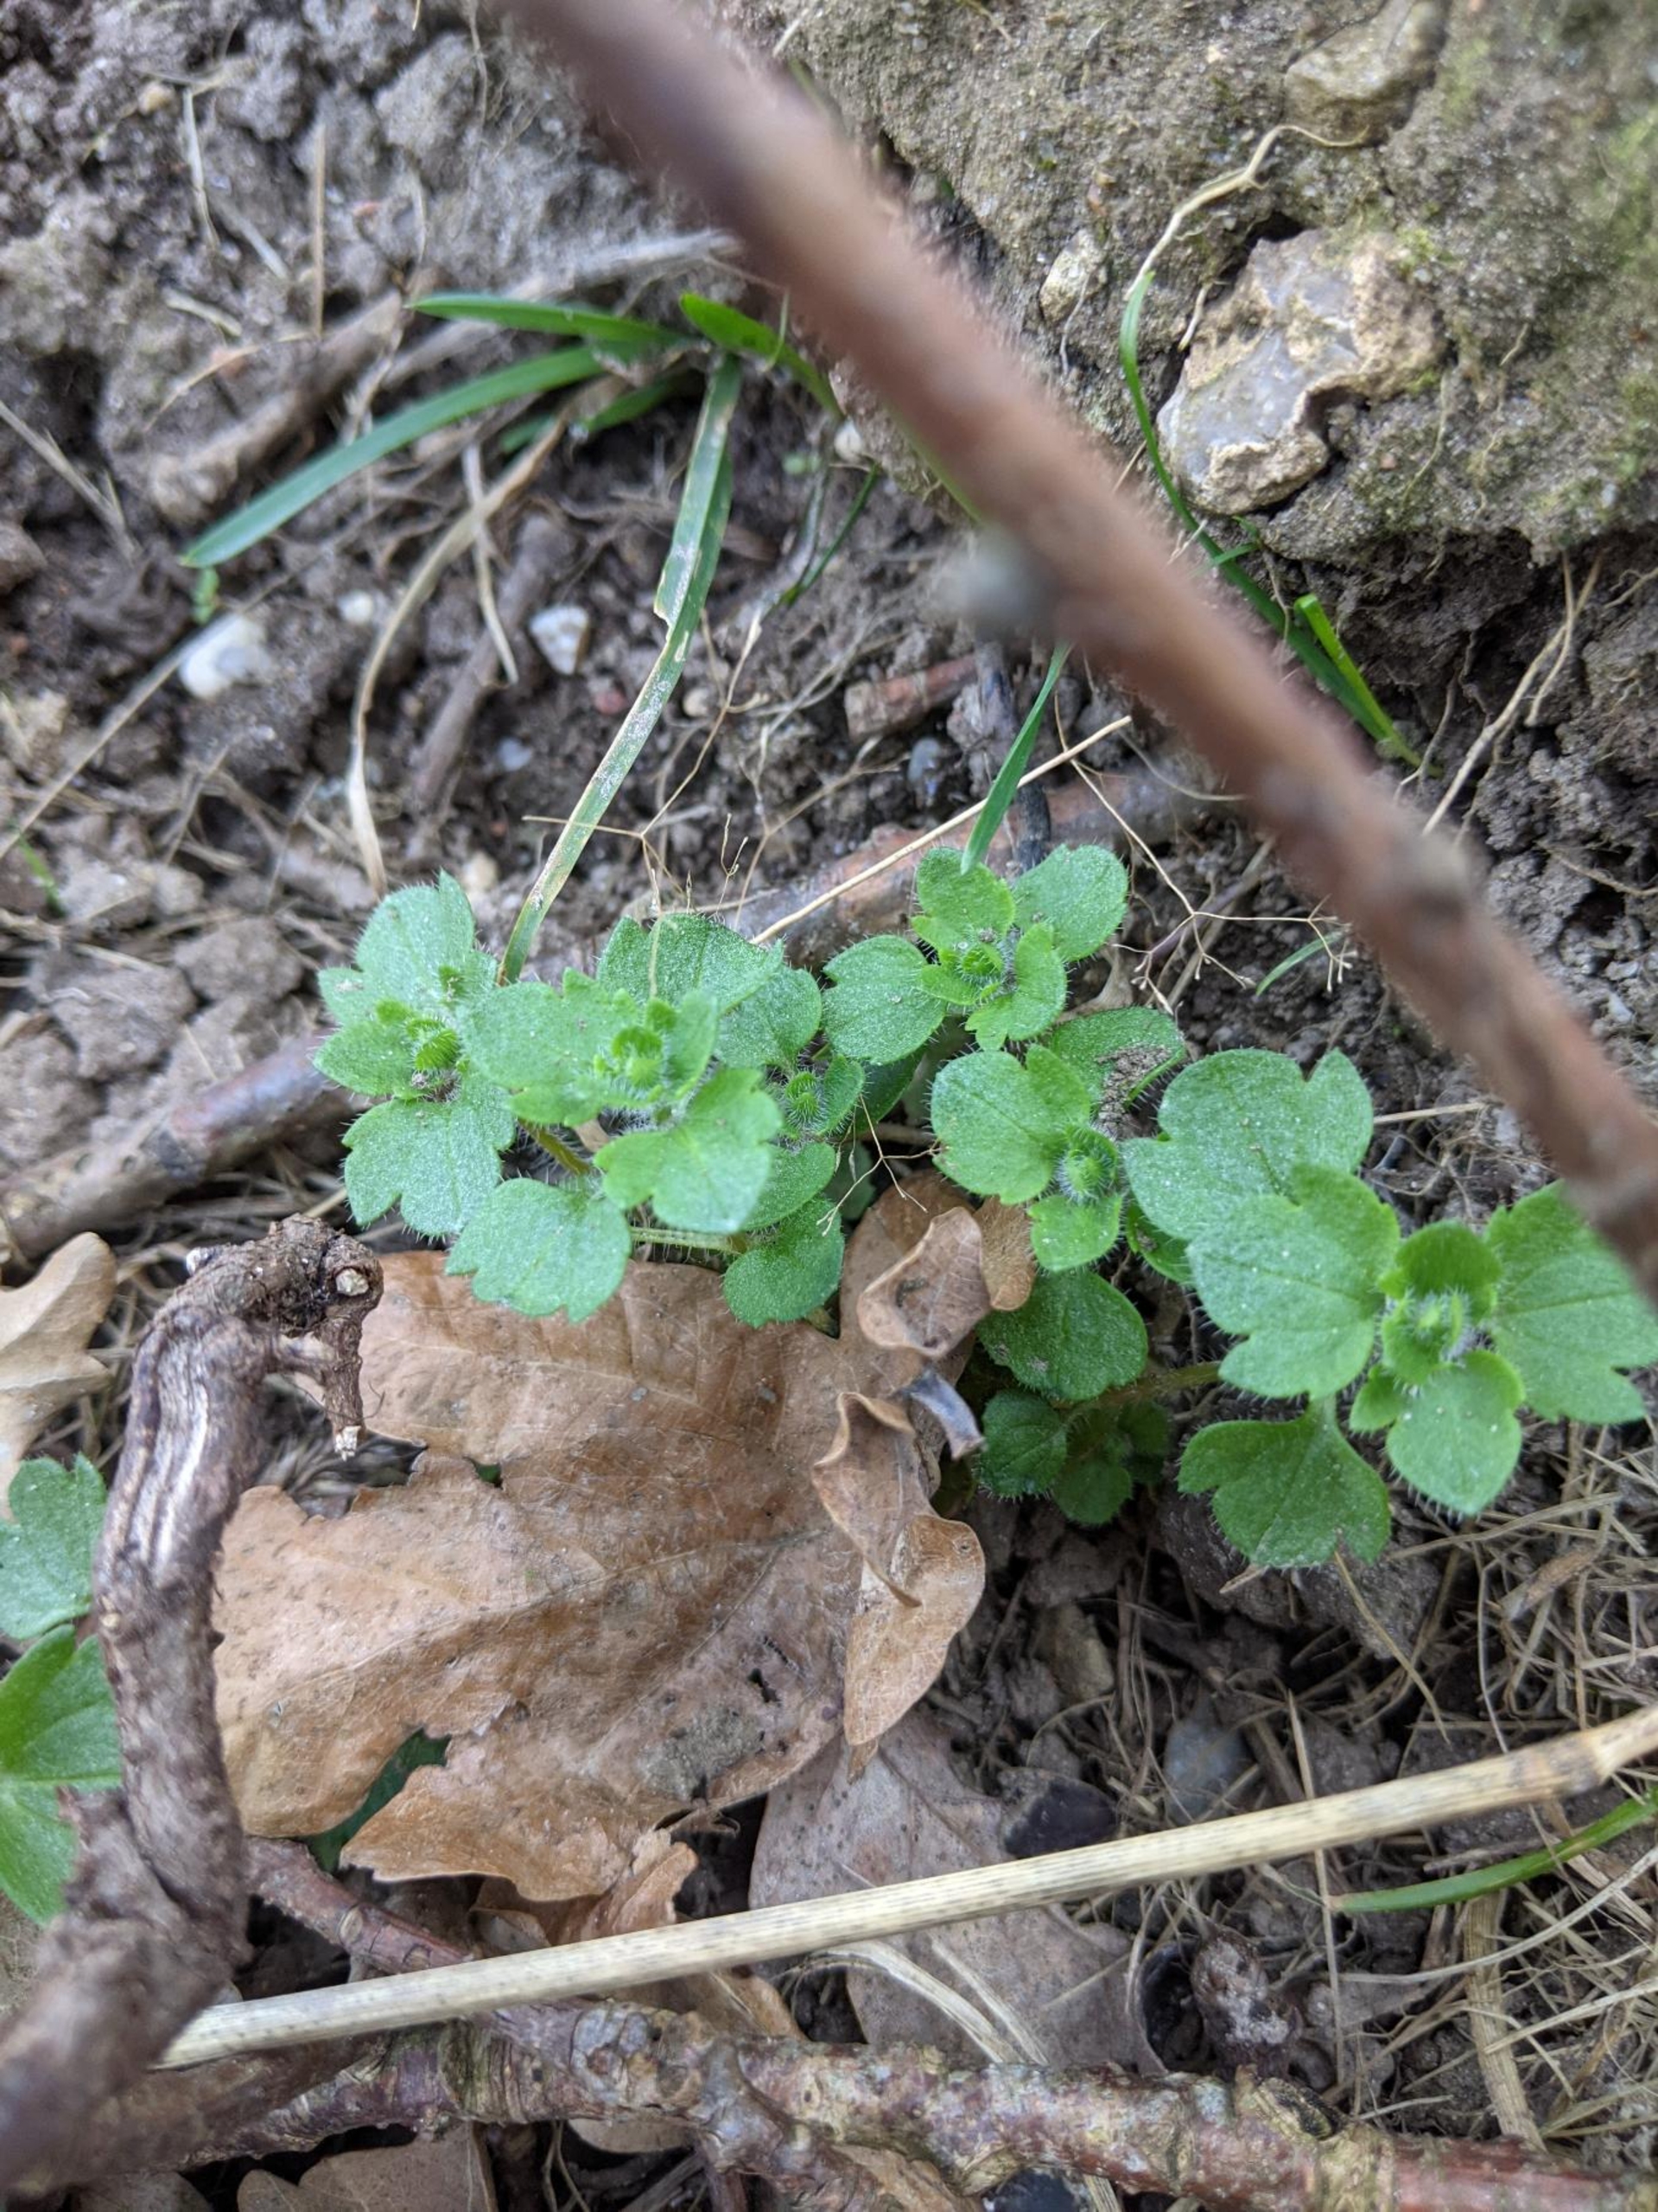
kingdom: Plantae
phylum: Tracheophyta
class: Magnoliopsida
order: Lamiales
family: Plantaginaceae
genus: Veronica
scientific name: Veronica hederifolia
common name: Vedbend-ærenpris
